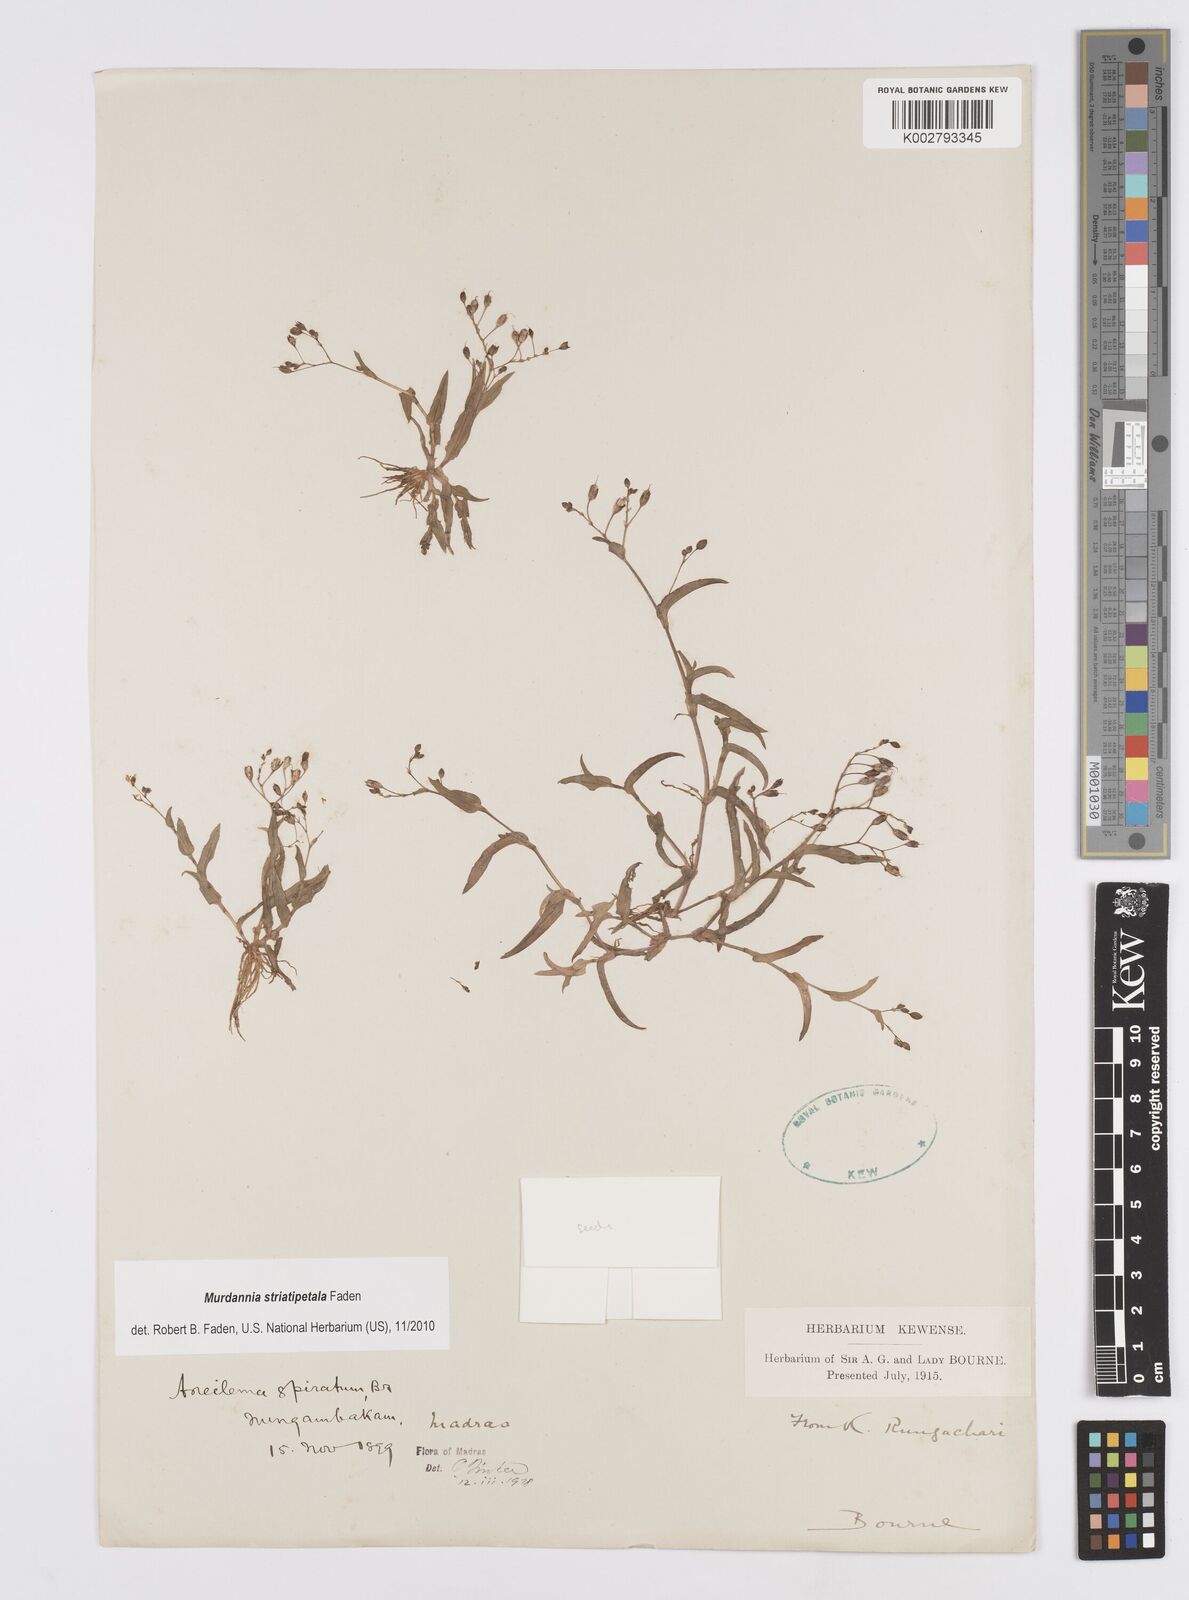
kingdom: Plantae
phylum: Tracheophyta
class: Liliopsida
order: Commelinales
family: Commelinaceae
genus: Murdannia
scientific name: Murdannia striatipetala
